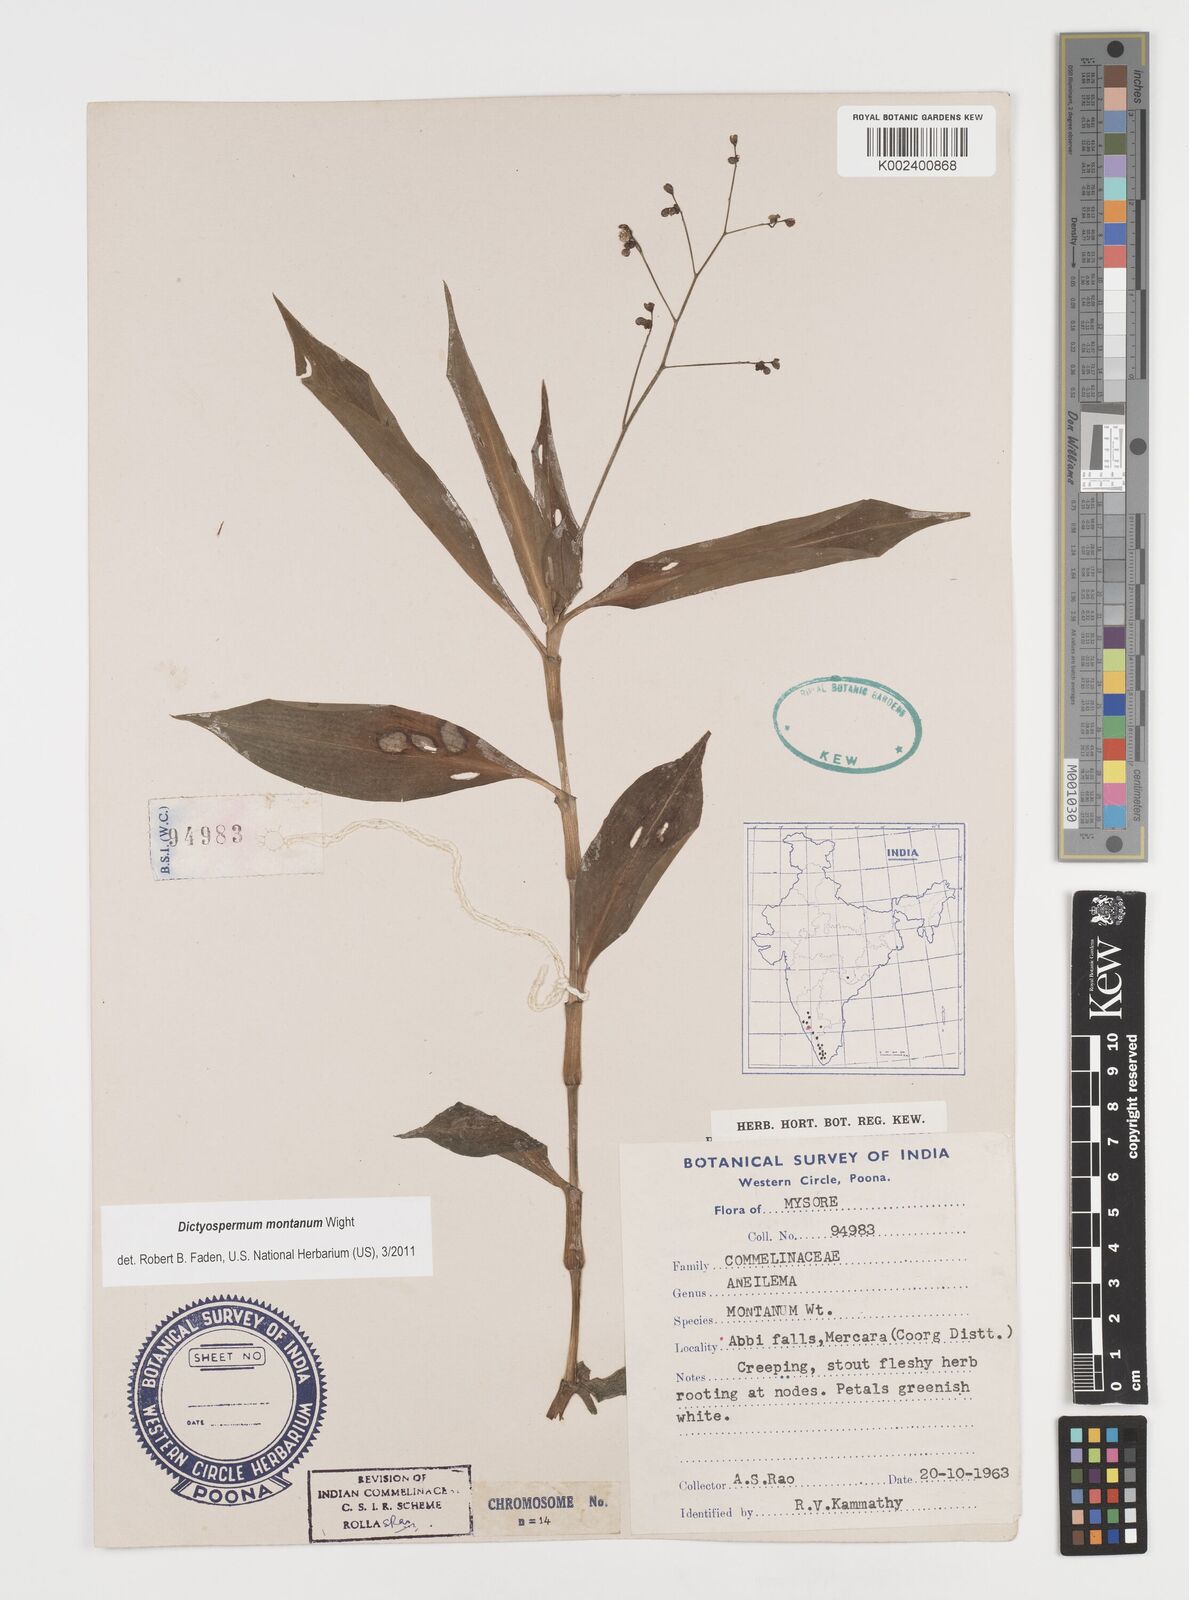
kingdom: Plantae
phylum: Tracheophyta
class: Liliopsida
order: Commelinales
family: Commelinaceae
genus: Dictyospermum
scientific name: Dictyospermum montanum
